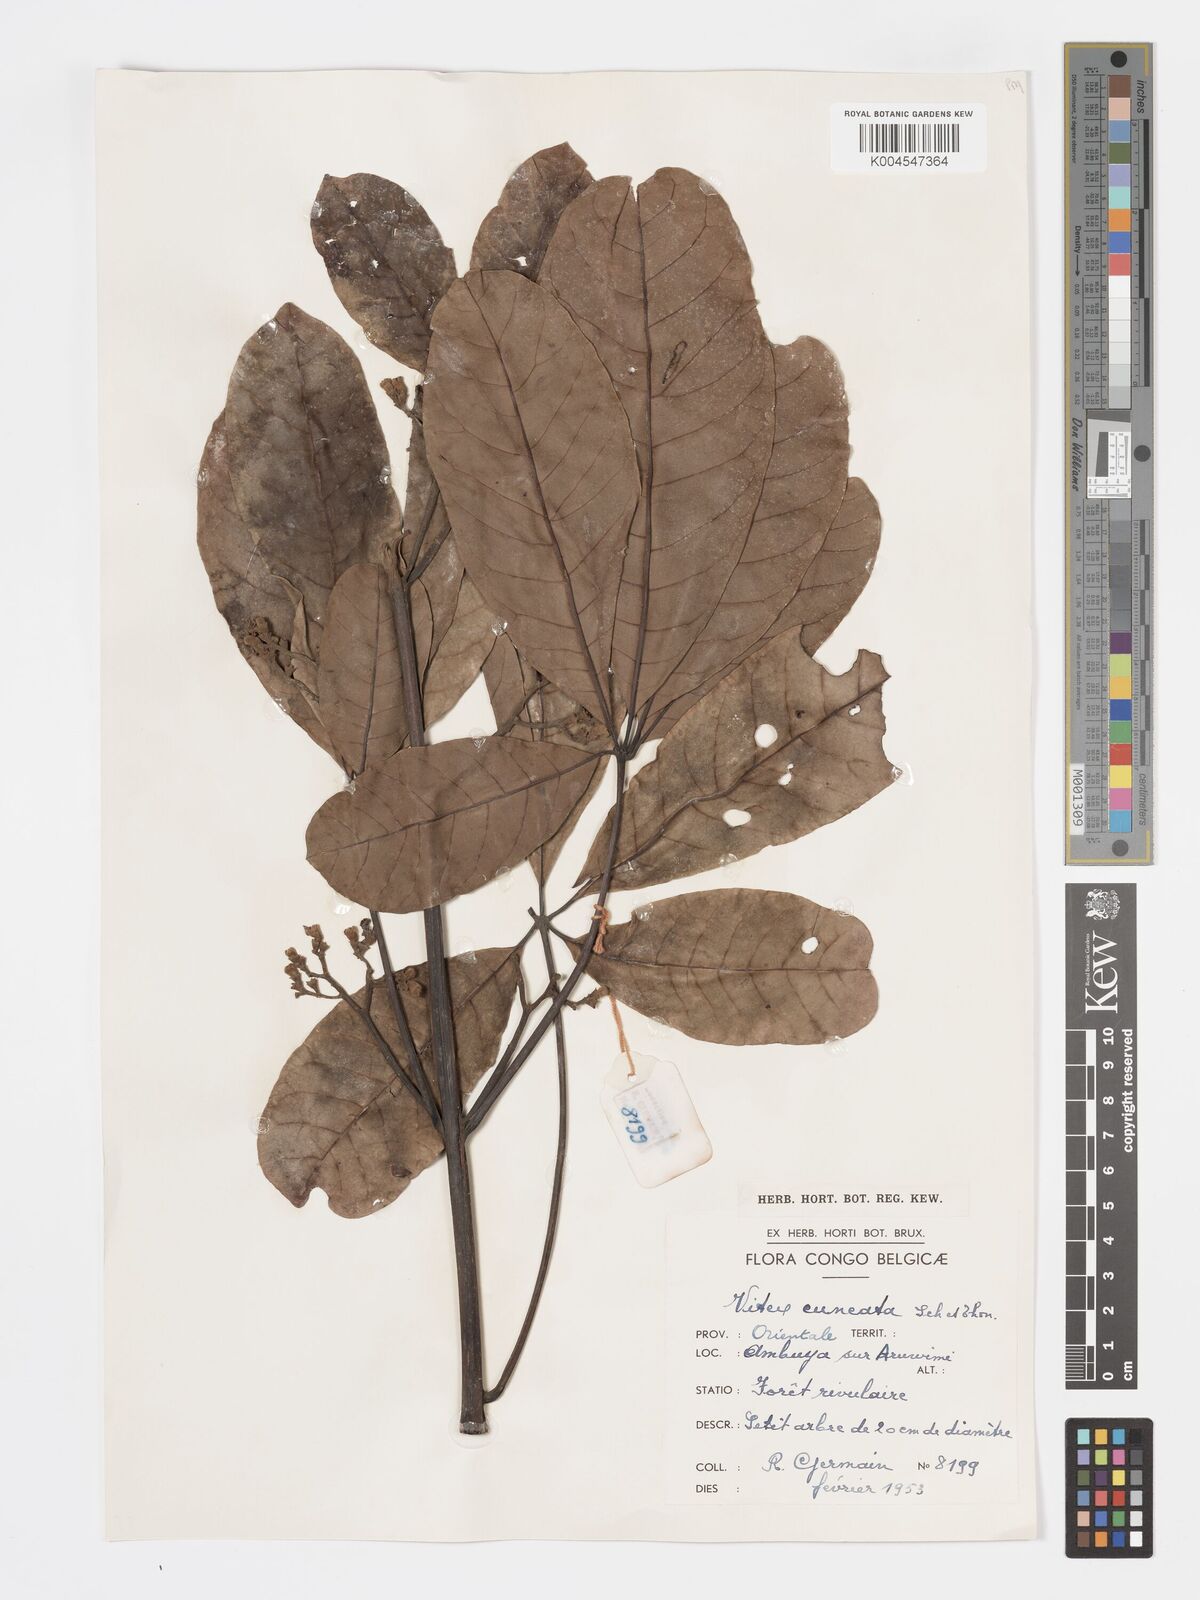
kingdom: Plantae
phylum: Tracheophyta
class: Magnoliopsida
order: Lamiales
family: Lamiaceae
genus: Vitex
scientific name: Vitex doniana
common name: Black plum
